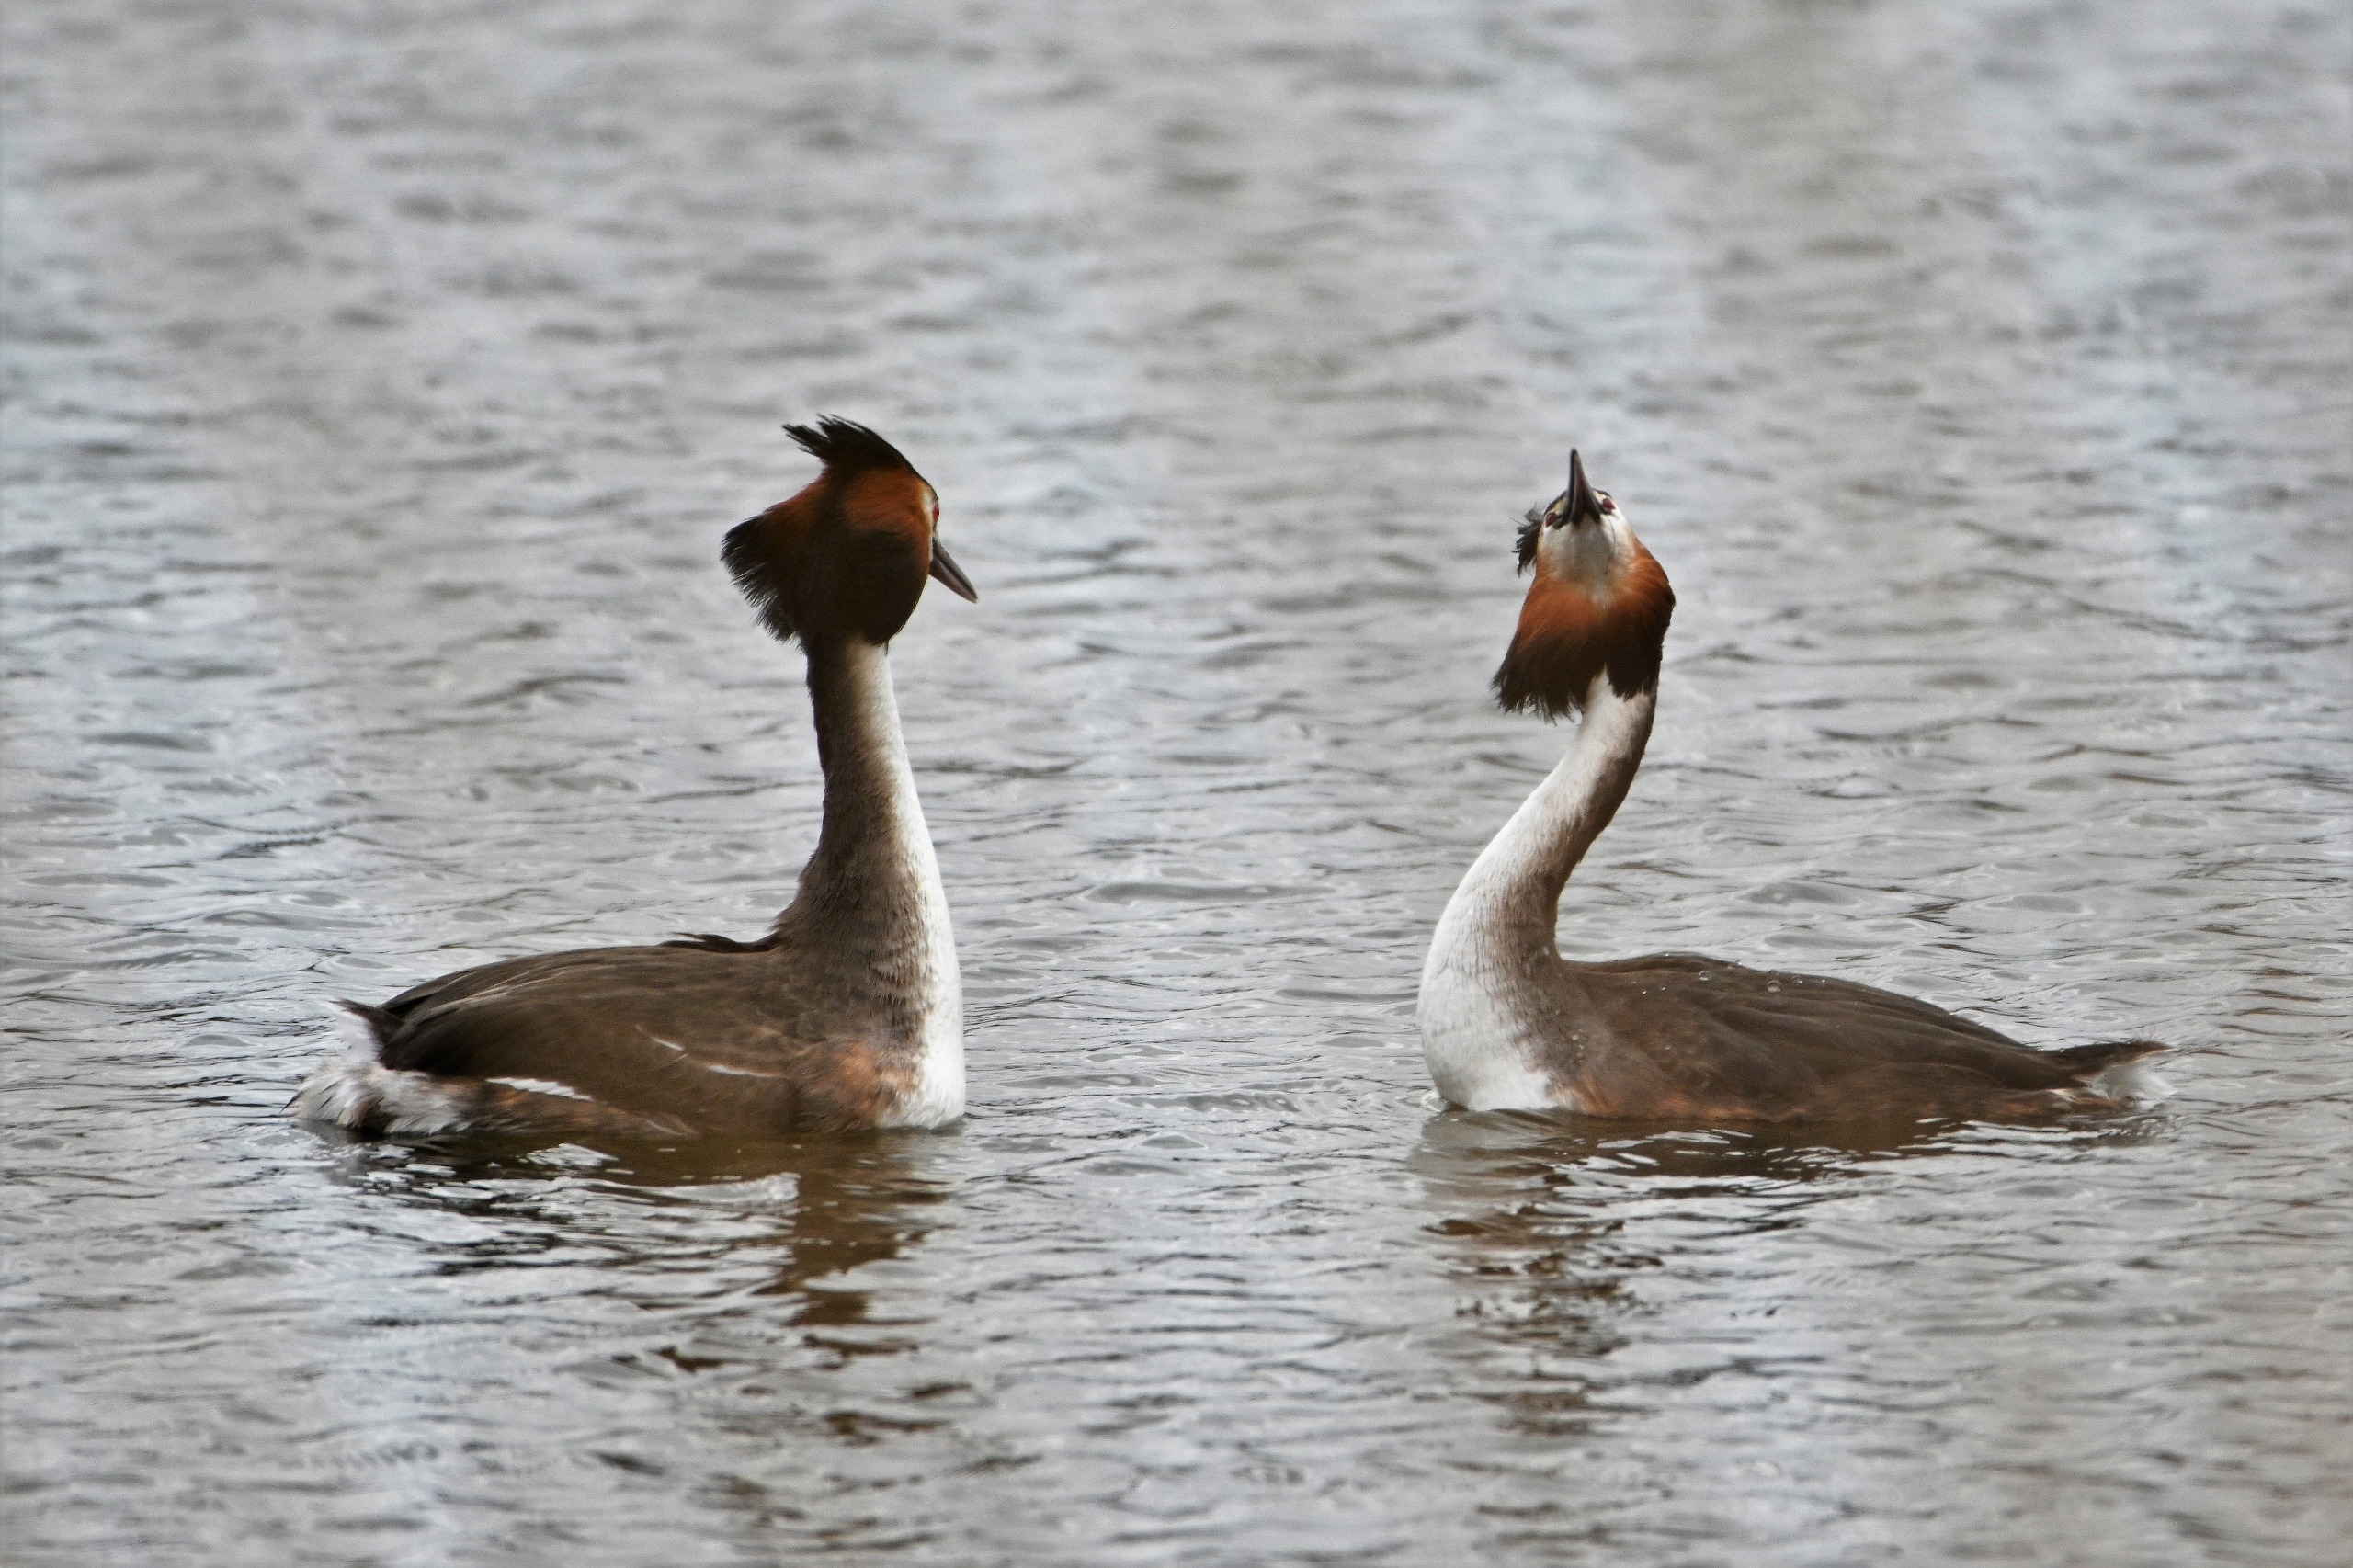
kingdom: Animalia
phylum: Chordata
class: Aves
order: Podicipediformes
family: Podicipedidae
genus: Podiceps
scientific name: Podiceps cristatus
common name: Toppet lappedykker
